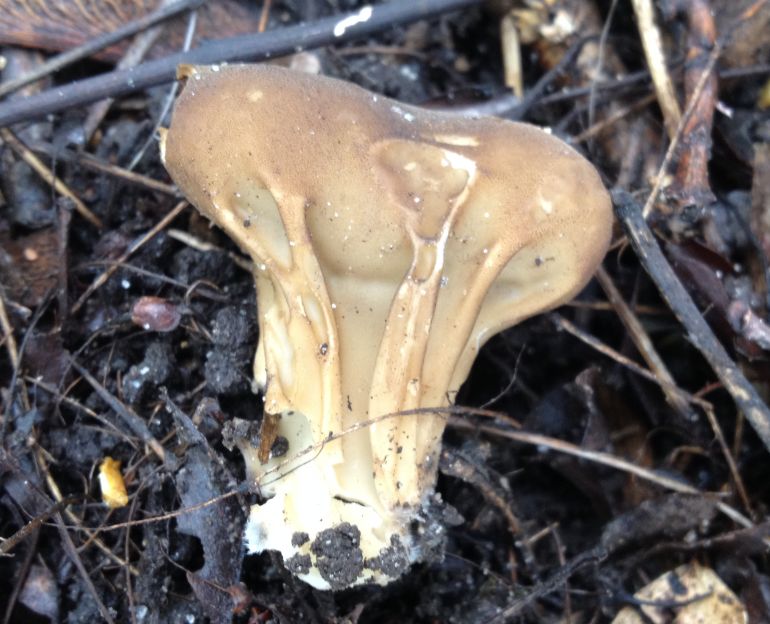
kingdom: Fungi
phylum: Ascomycota
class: Pezizomycetes
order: Pezizales
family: Helvellaceae
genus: Helvella
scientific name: Helvella acetabulum
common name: pokal-foldhat
